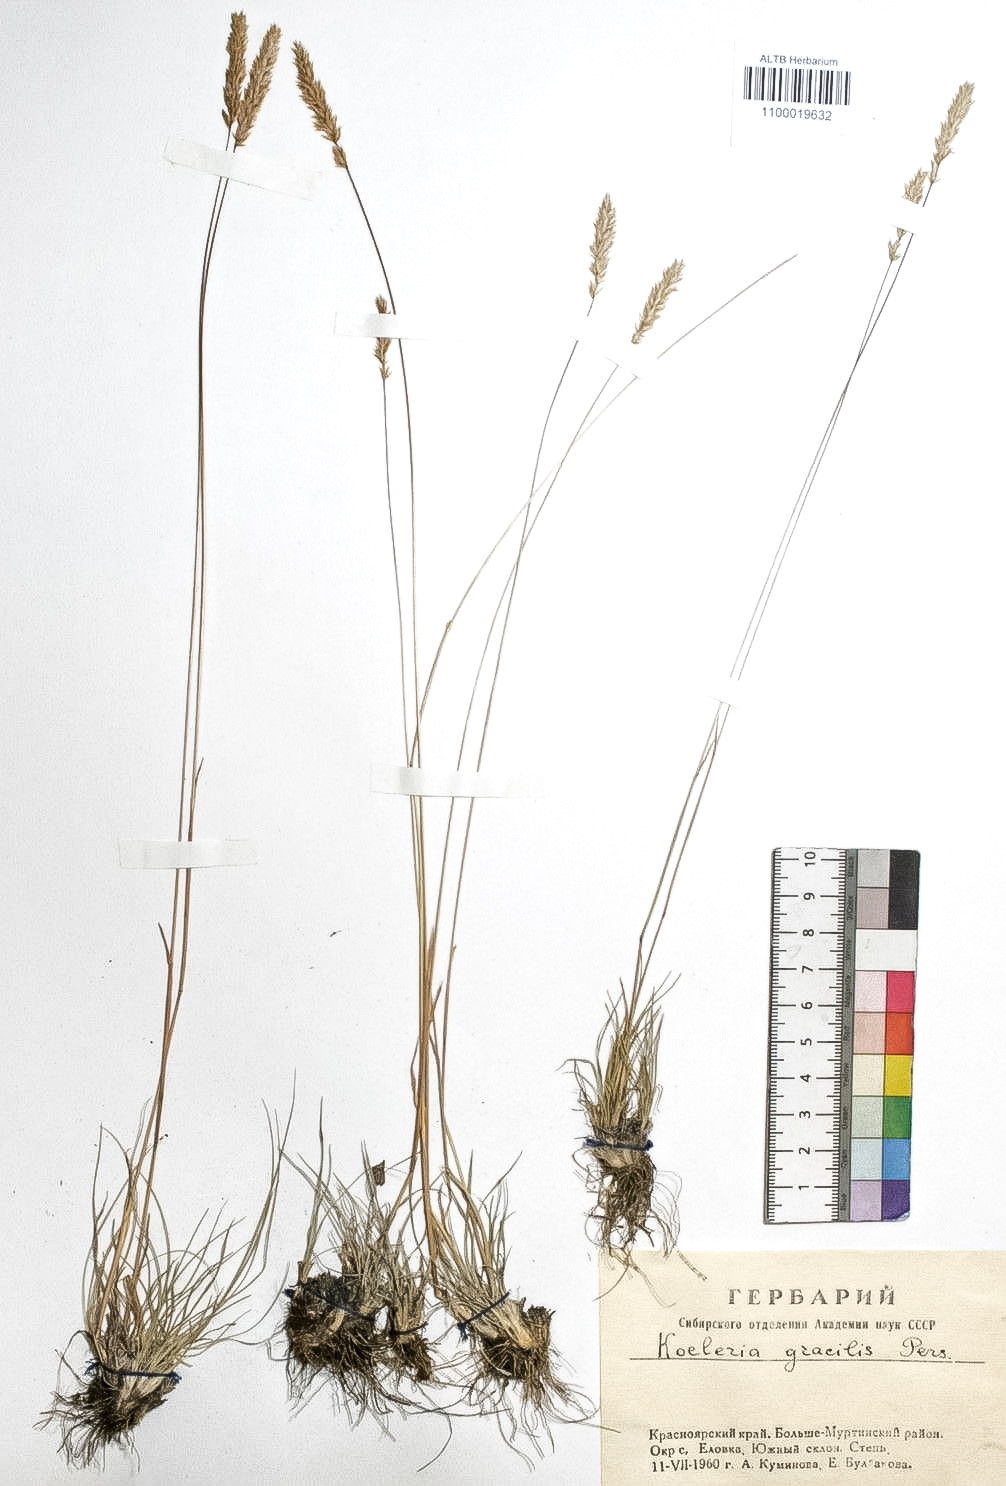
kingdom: Plantae
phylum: Tracheophyta
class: Liliopsida
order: Poales
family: Poaceae
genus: Koeleria
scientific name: Koeleria macrantha
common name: Crested hair-grass
